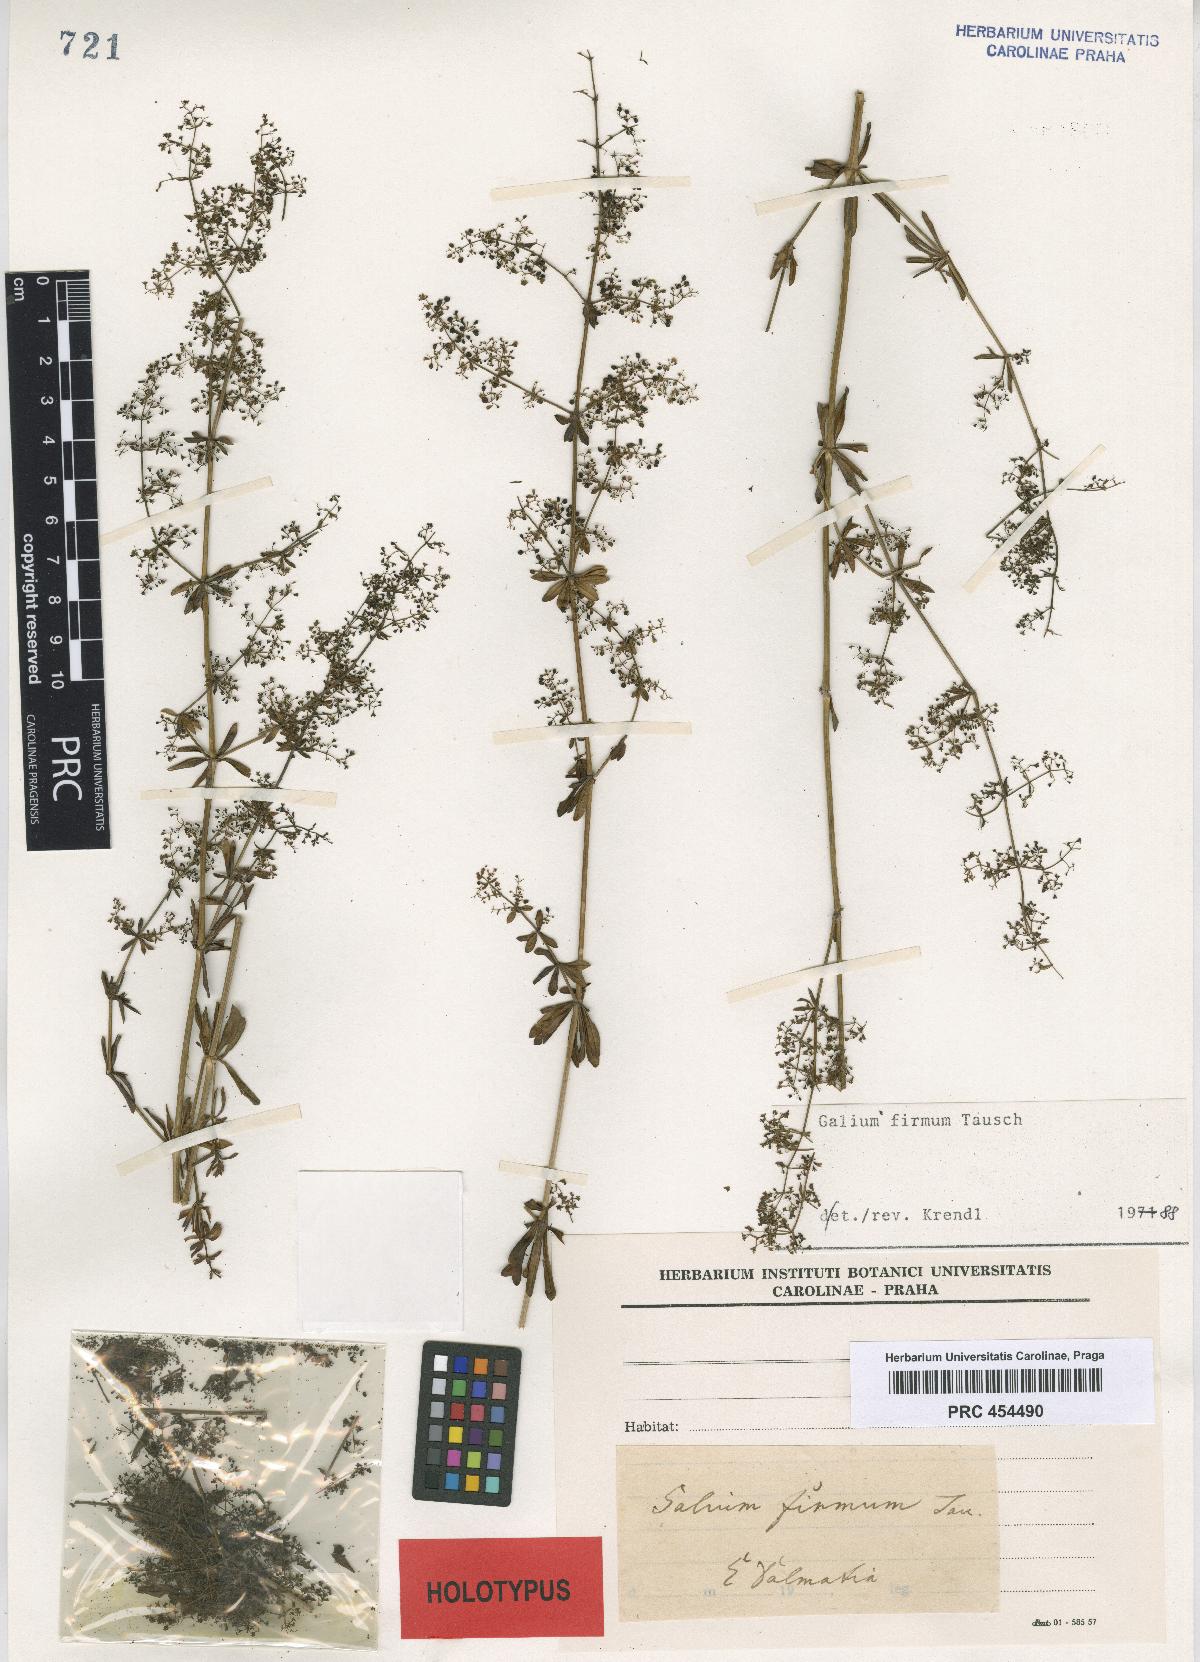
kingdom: Plantae
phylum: Tracheophyta
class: Magnoliopsida
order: Gentianales
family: Rubiaceae
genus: Galium
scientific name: Galium firmum
